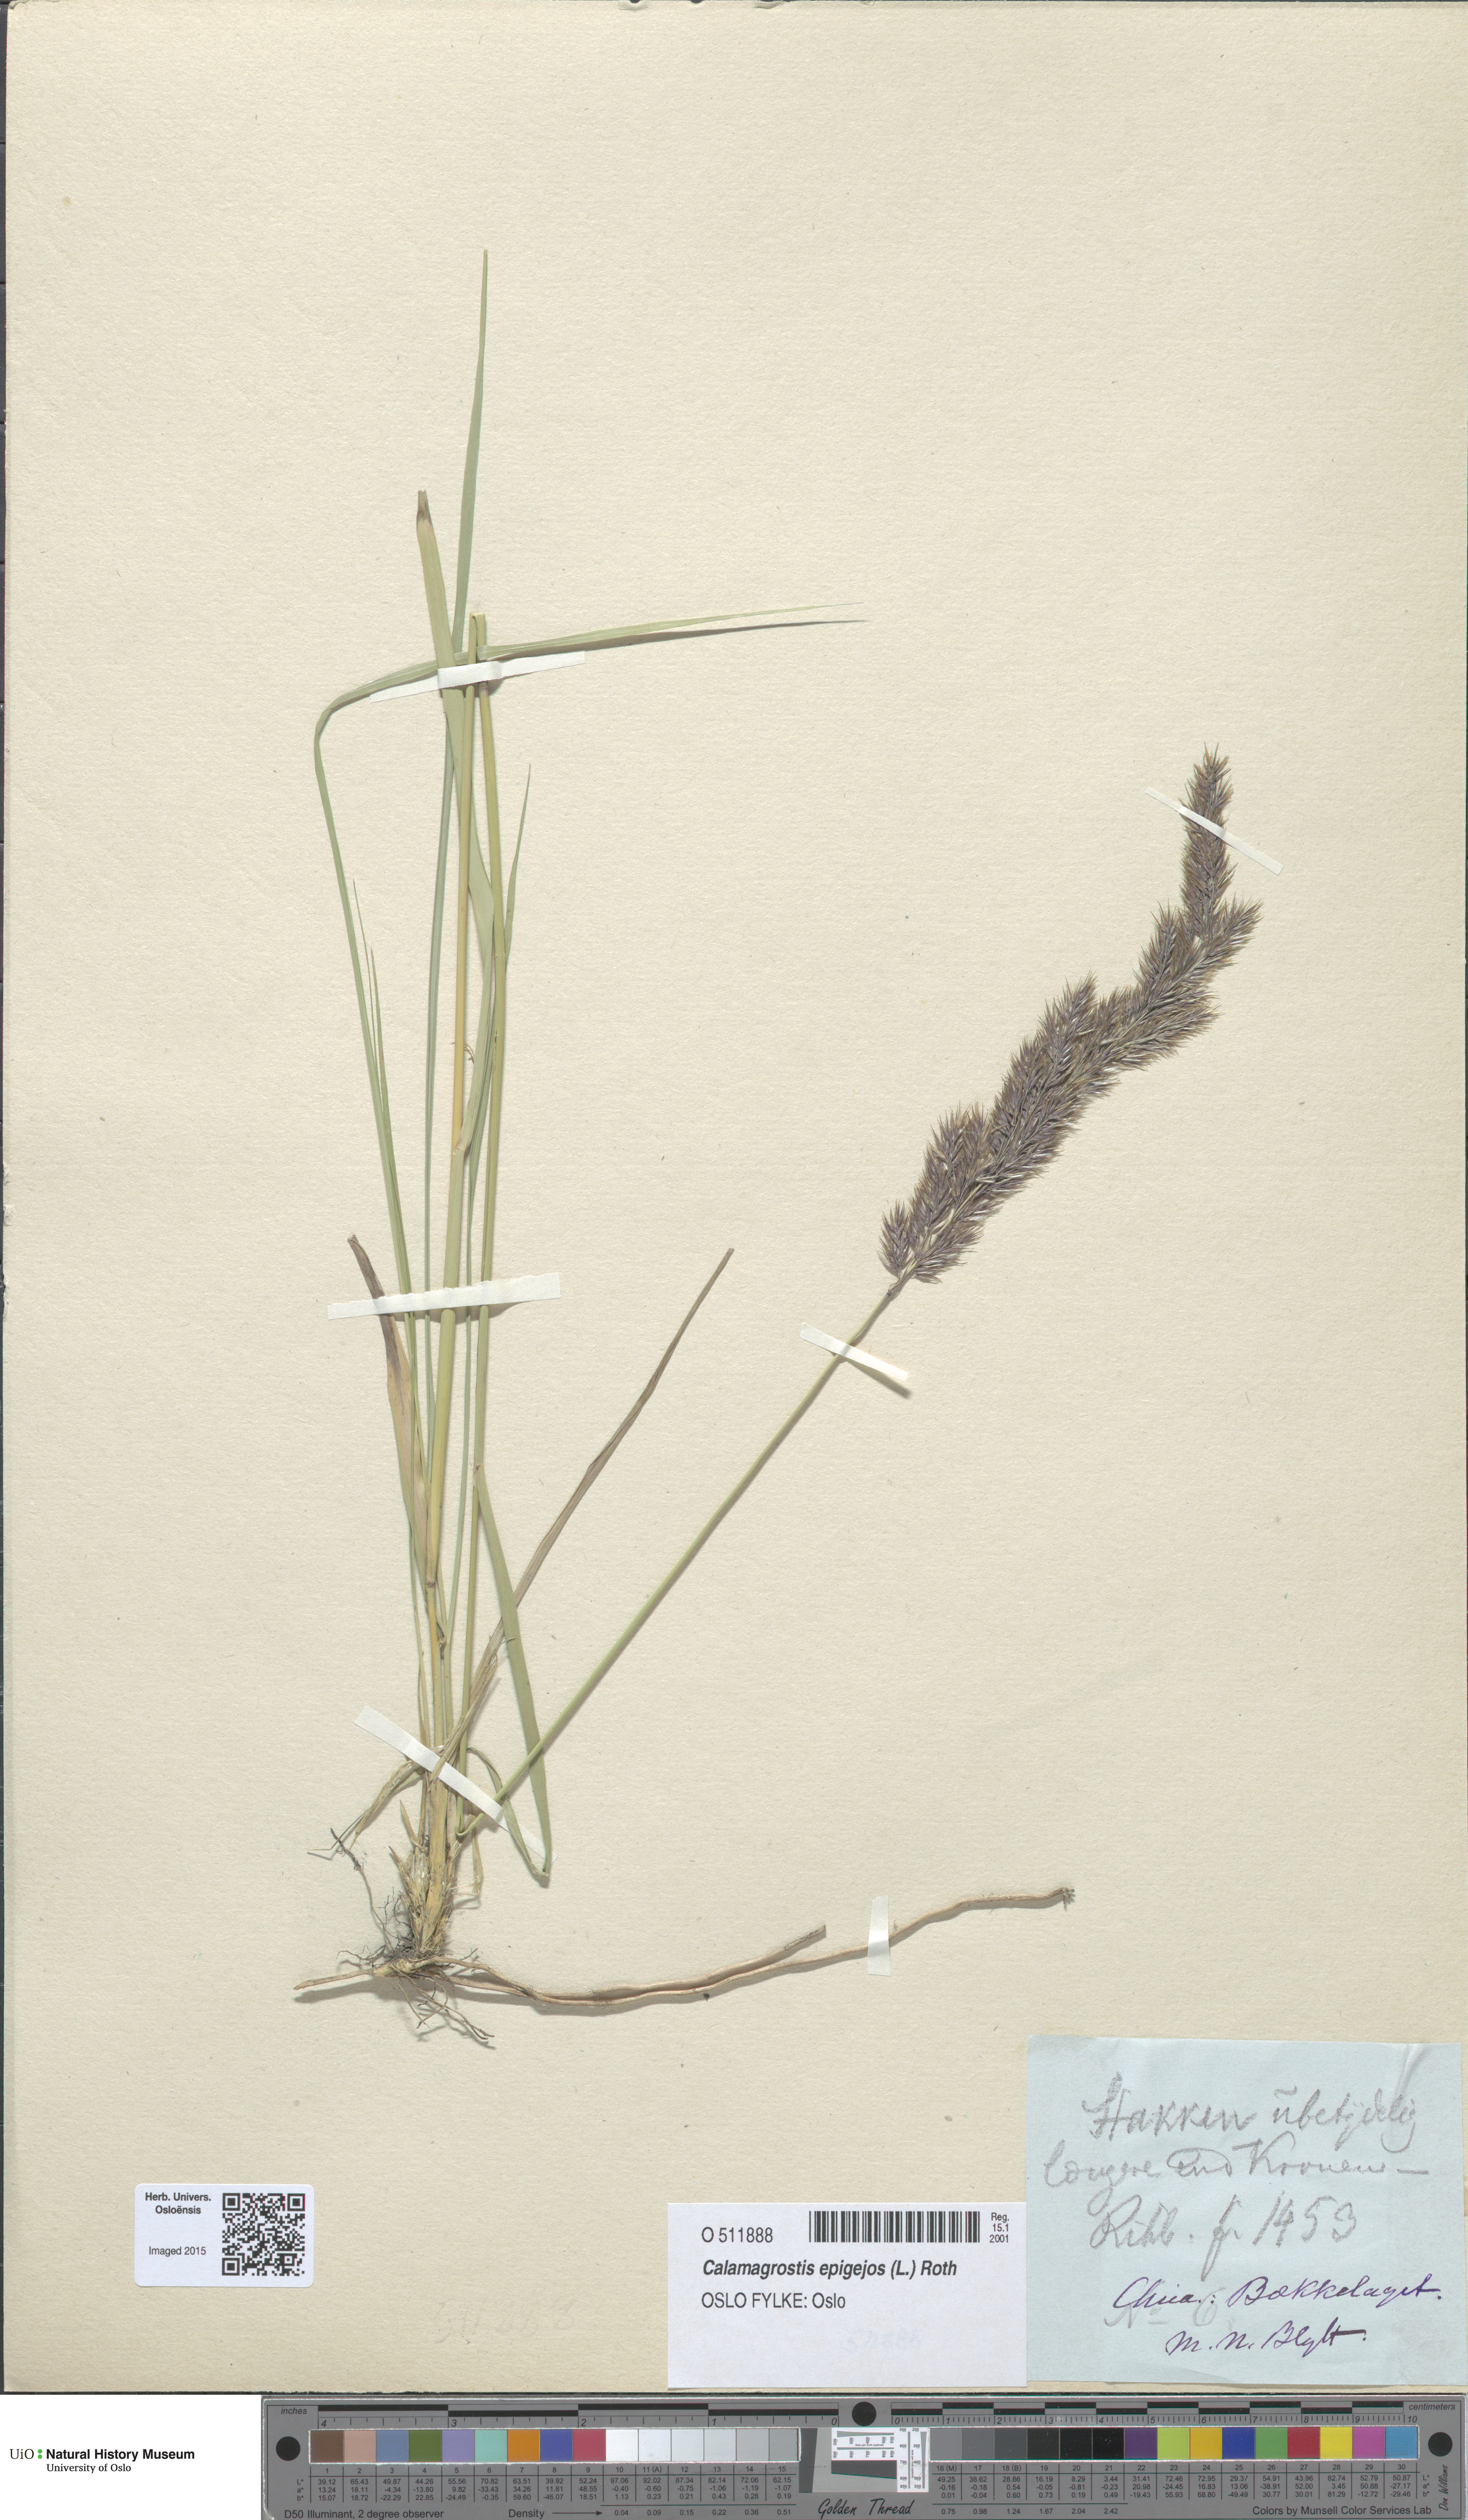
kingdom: Plantae
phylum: Tracheophyta
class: Liliopsida
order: Poales
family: Poaceae
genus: Calamagrostis
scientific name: Calamagrostis epigejos
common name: Wood small-reed
